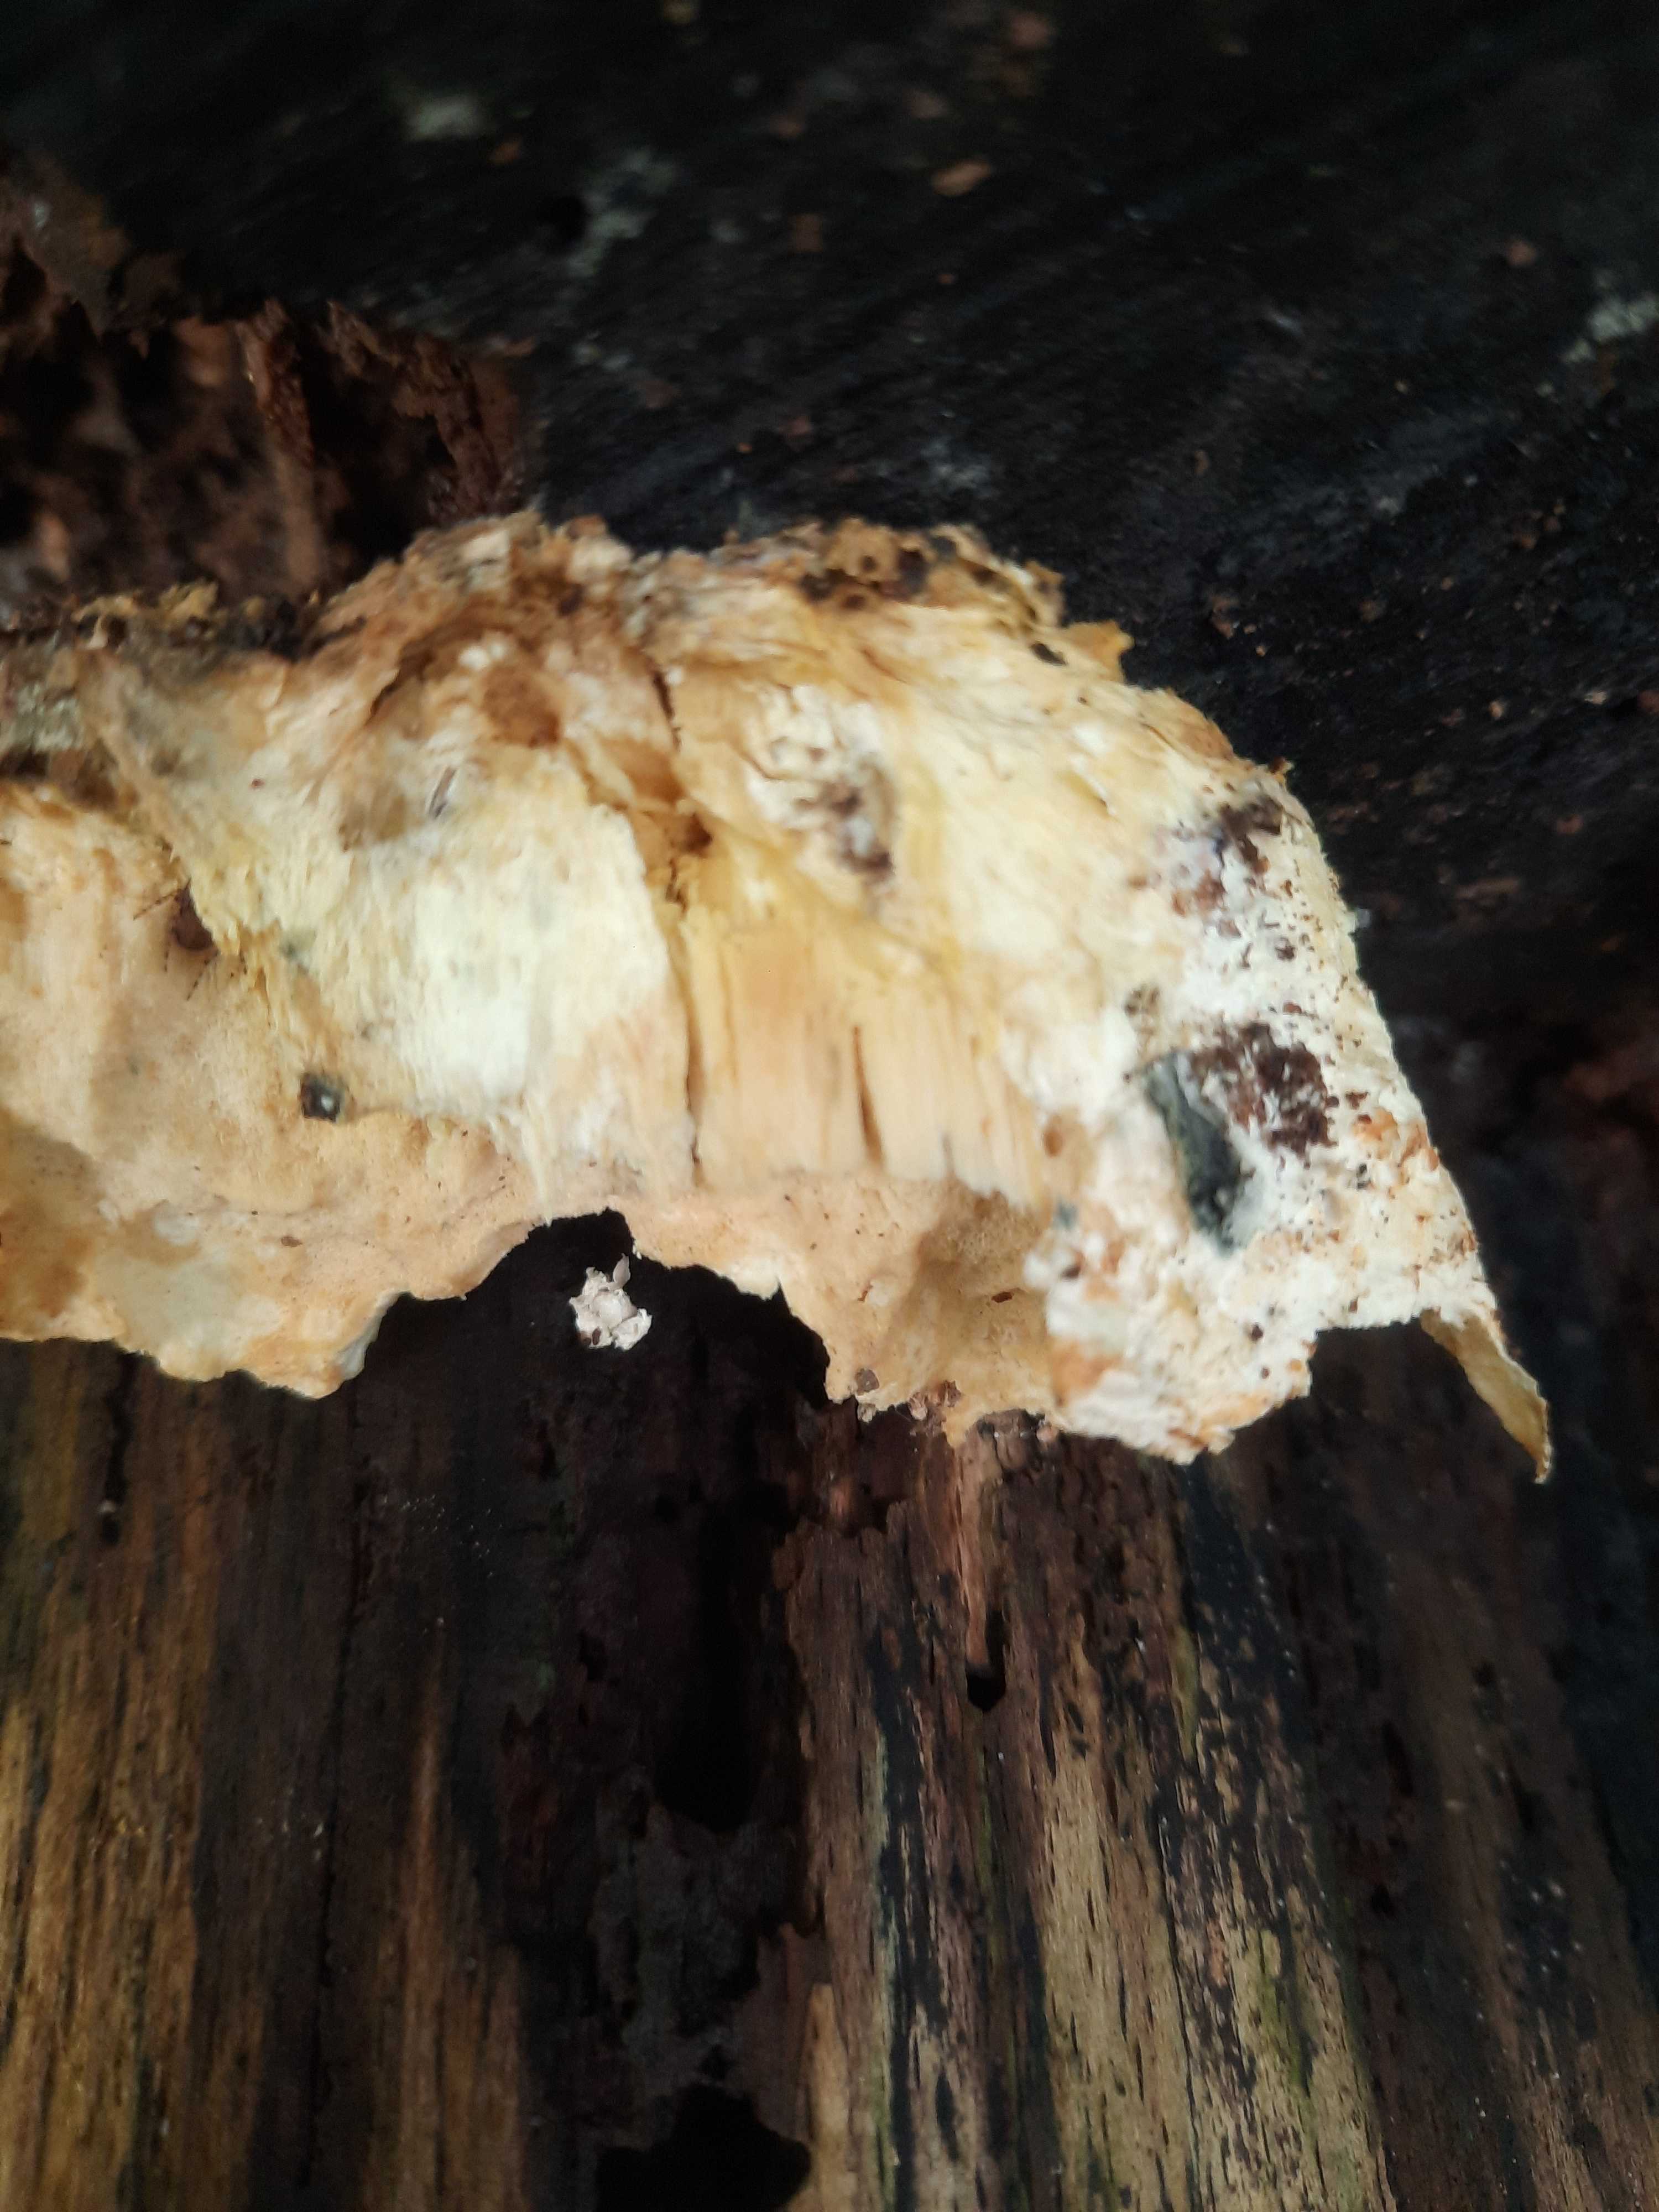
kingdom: Fungi
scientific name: Fungi
